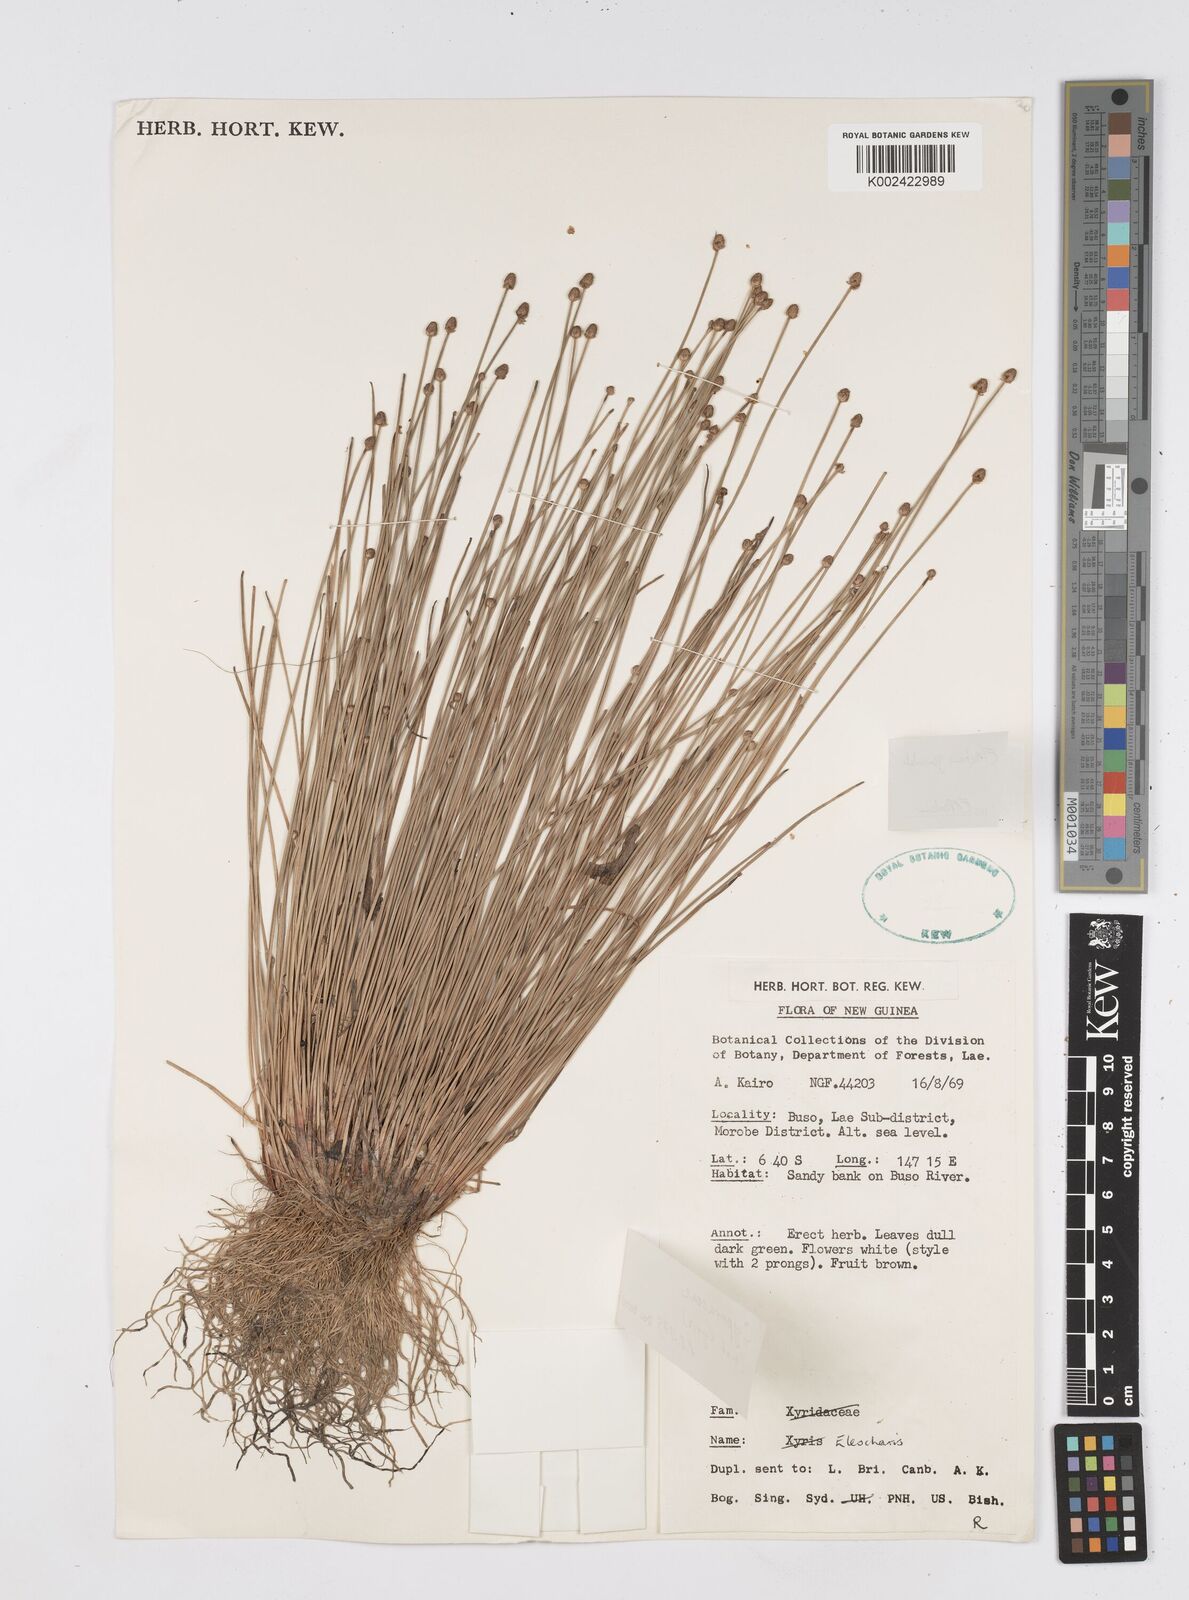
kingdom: Plantae
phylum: Tracheophyta
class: Liliopsida
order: Poales
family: Cyperaceae
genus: Eleocharis
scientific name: Eleocharis geniculata
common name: Canada spikesedge
